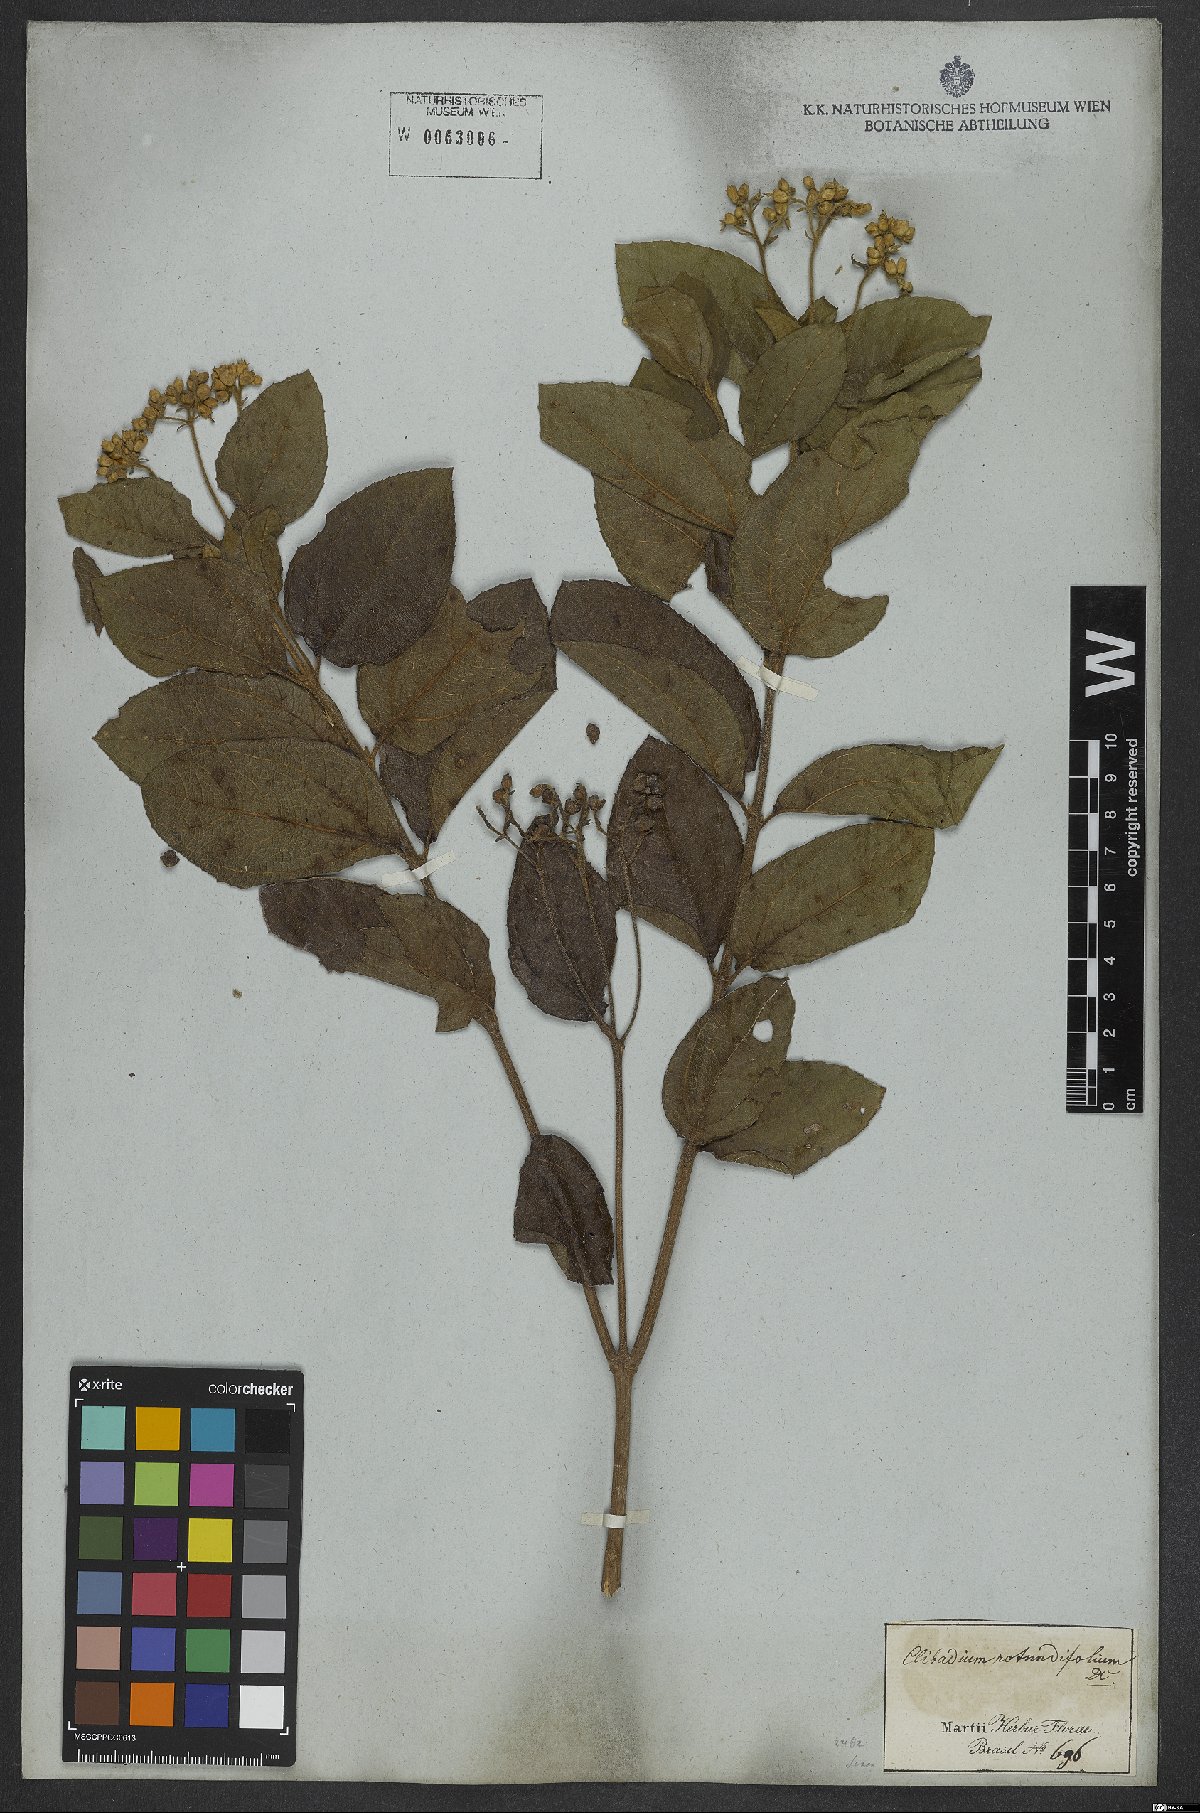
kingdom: Plantae
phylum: Tracheophyta
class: Magnoliopsida
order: Asterales
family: Asteraceae
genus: Clibadium
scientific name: Clibadium armanii
